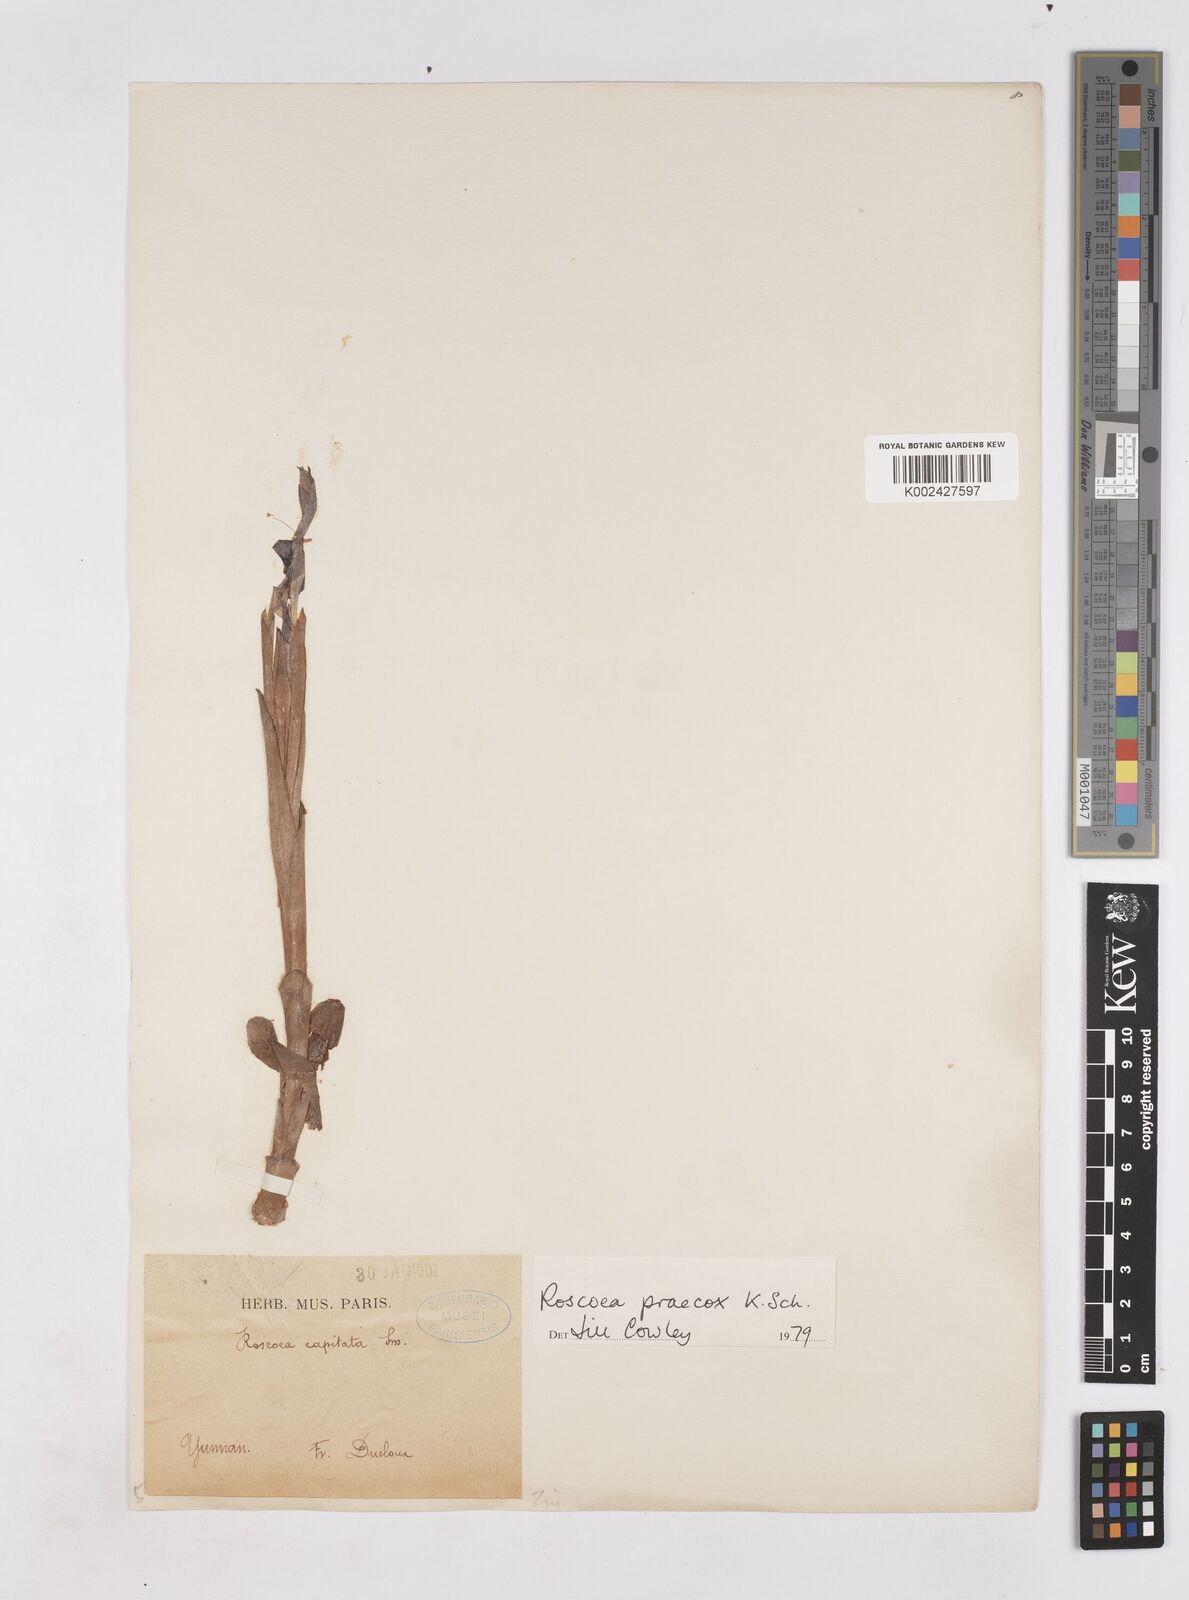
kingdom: Plantae
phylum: Tracheophyta
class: Liliopsida
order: Zingiberales
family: Zingiberaceae
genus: Roscoea
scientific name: Roscoea praecox
